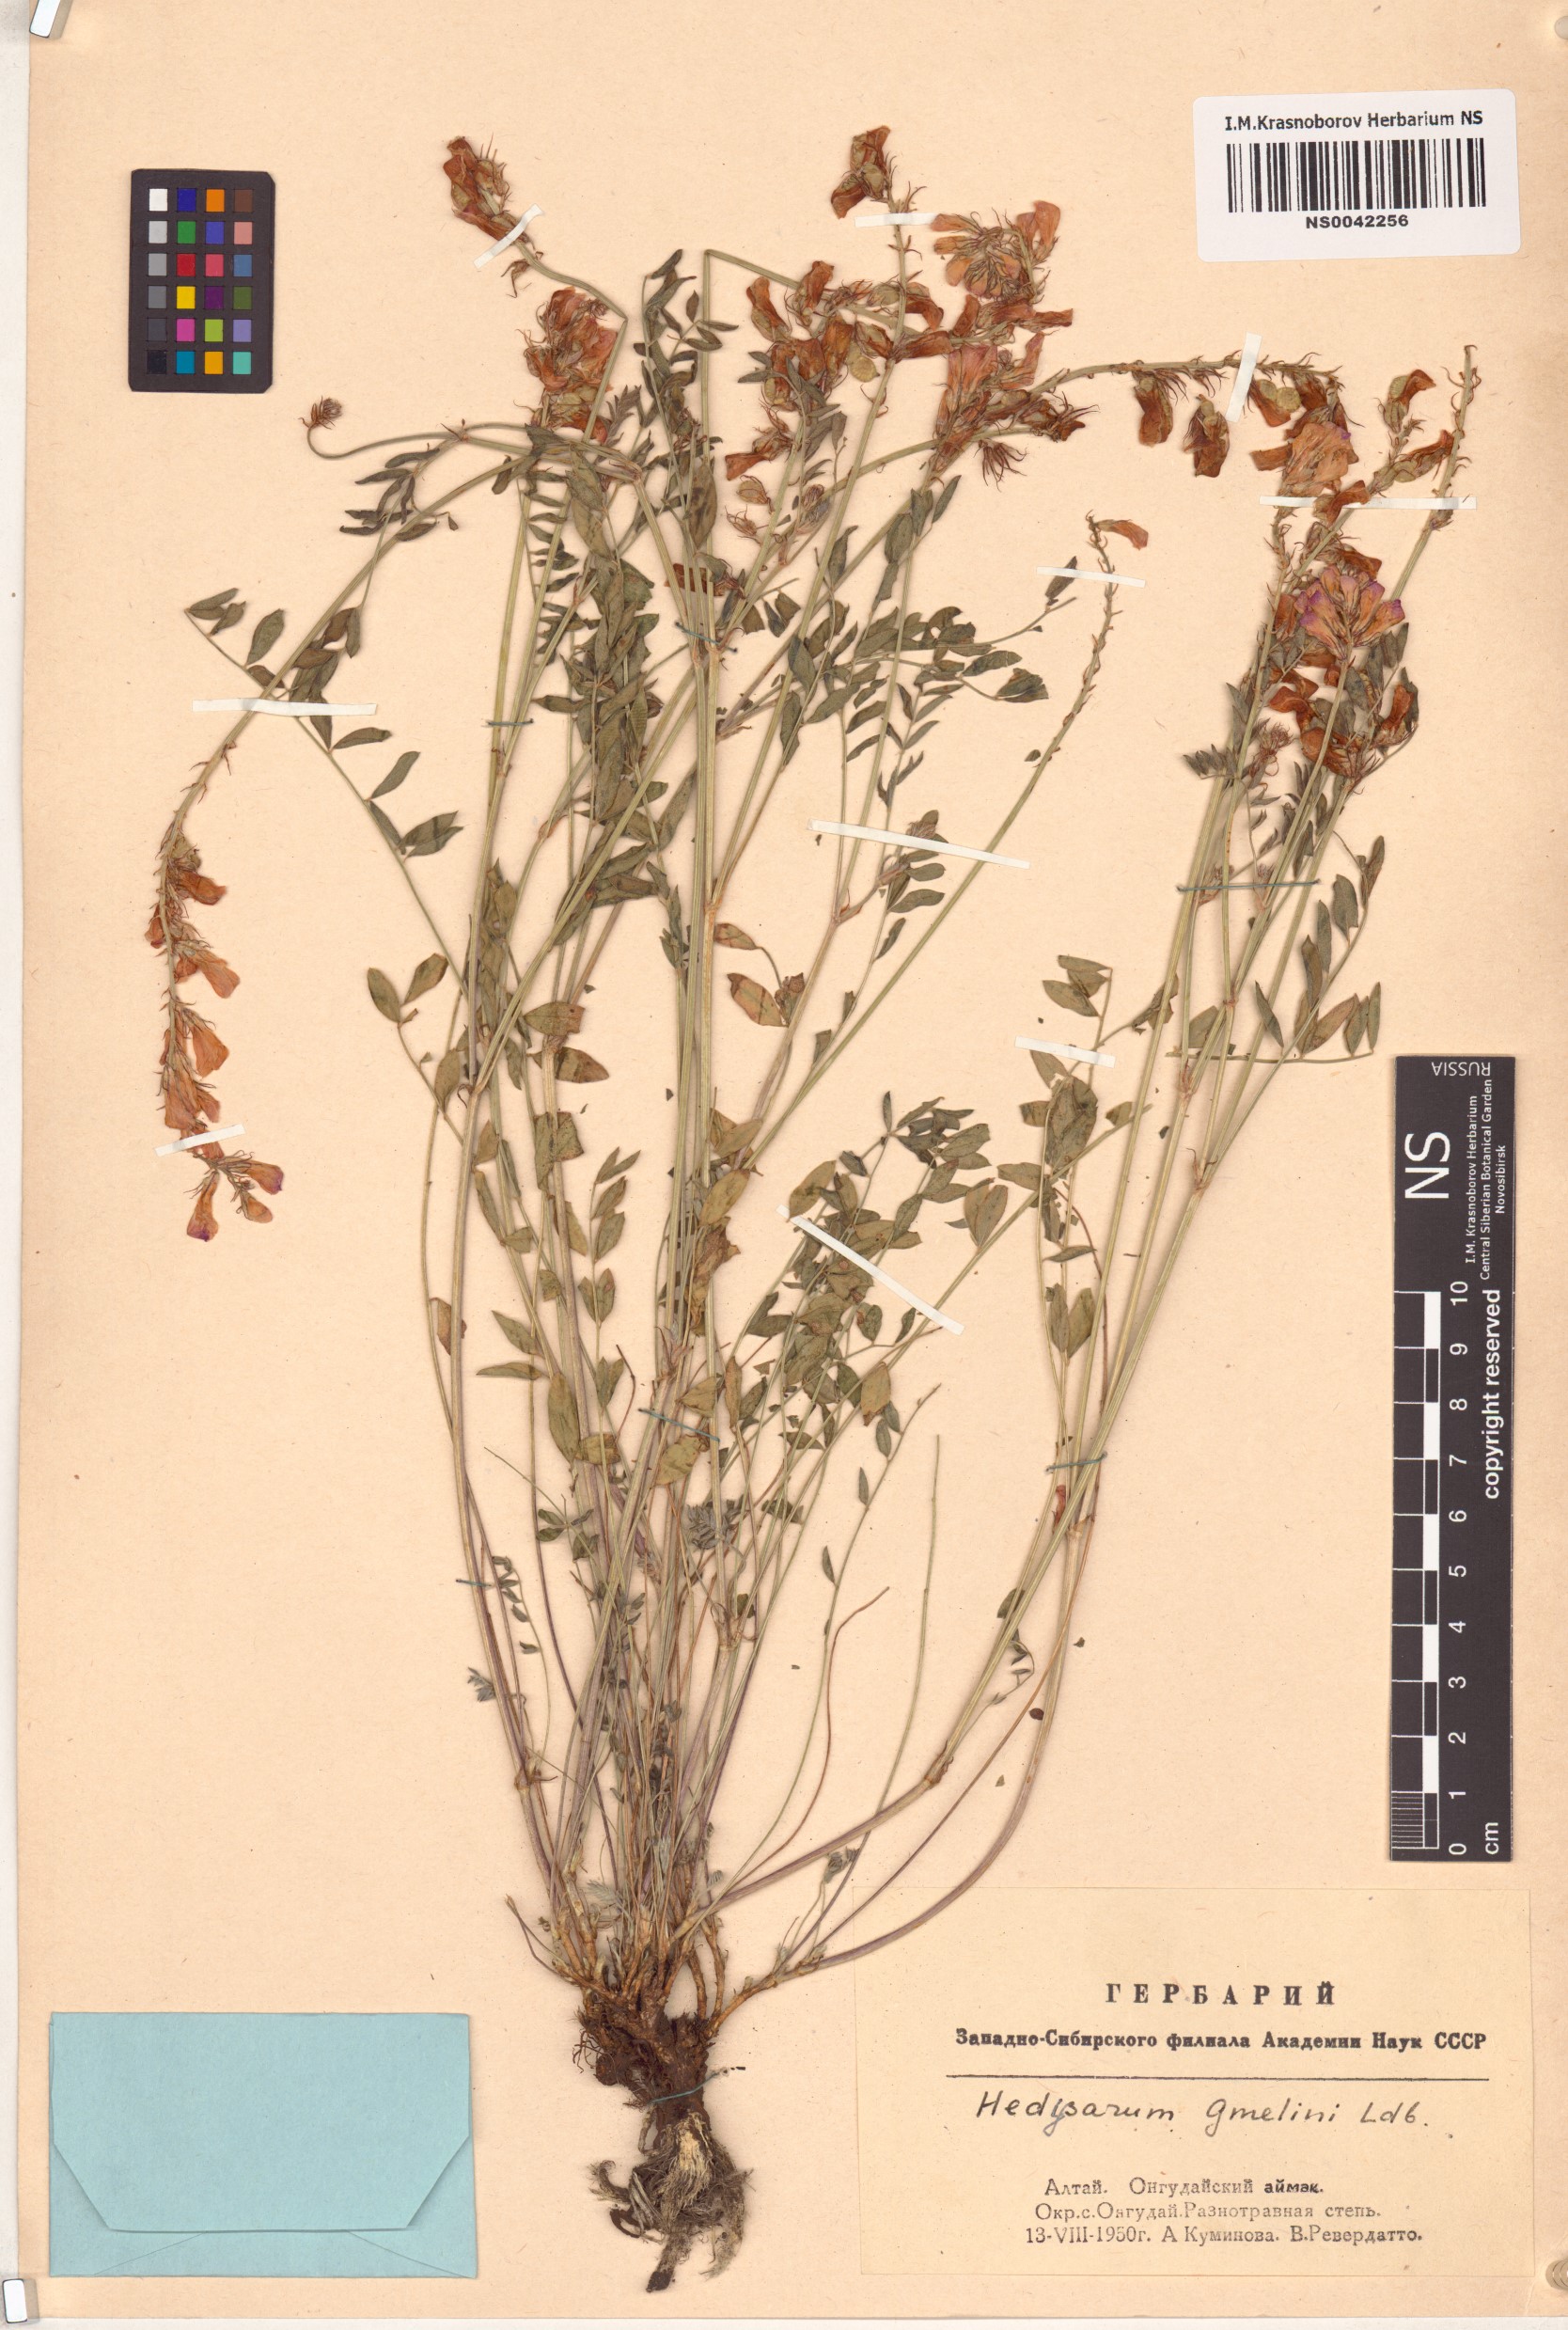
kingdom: Plantae
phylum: Tracheophyta
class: Magnoliopsida
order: Fabales
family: Fabaceae
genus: Hedysarum
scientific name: Hedysarum gmelinii
